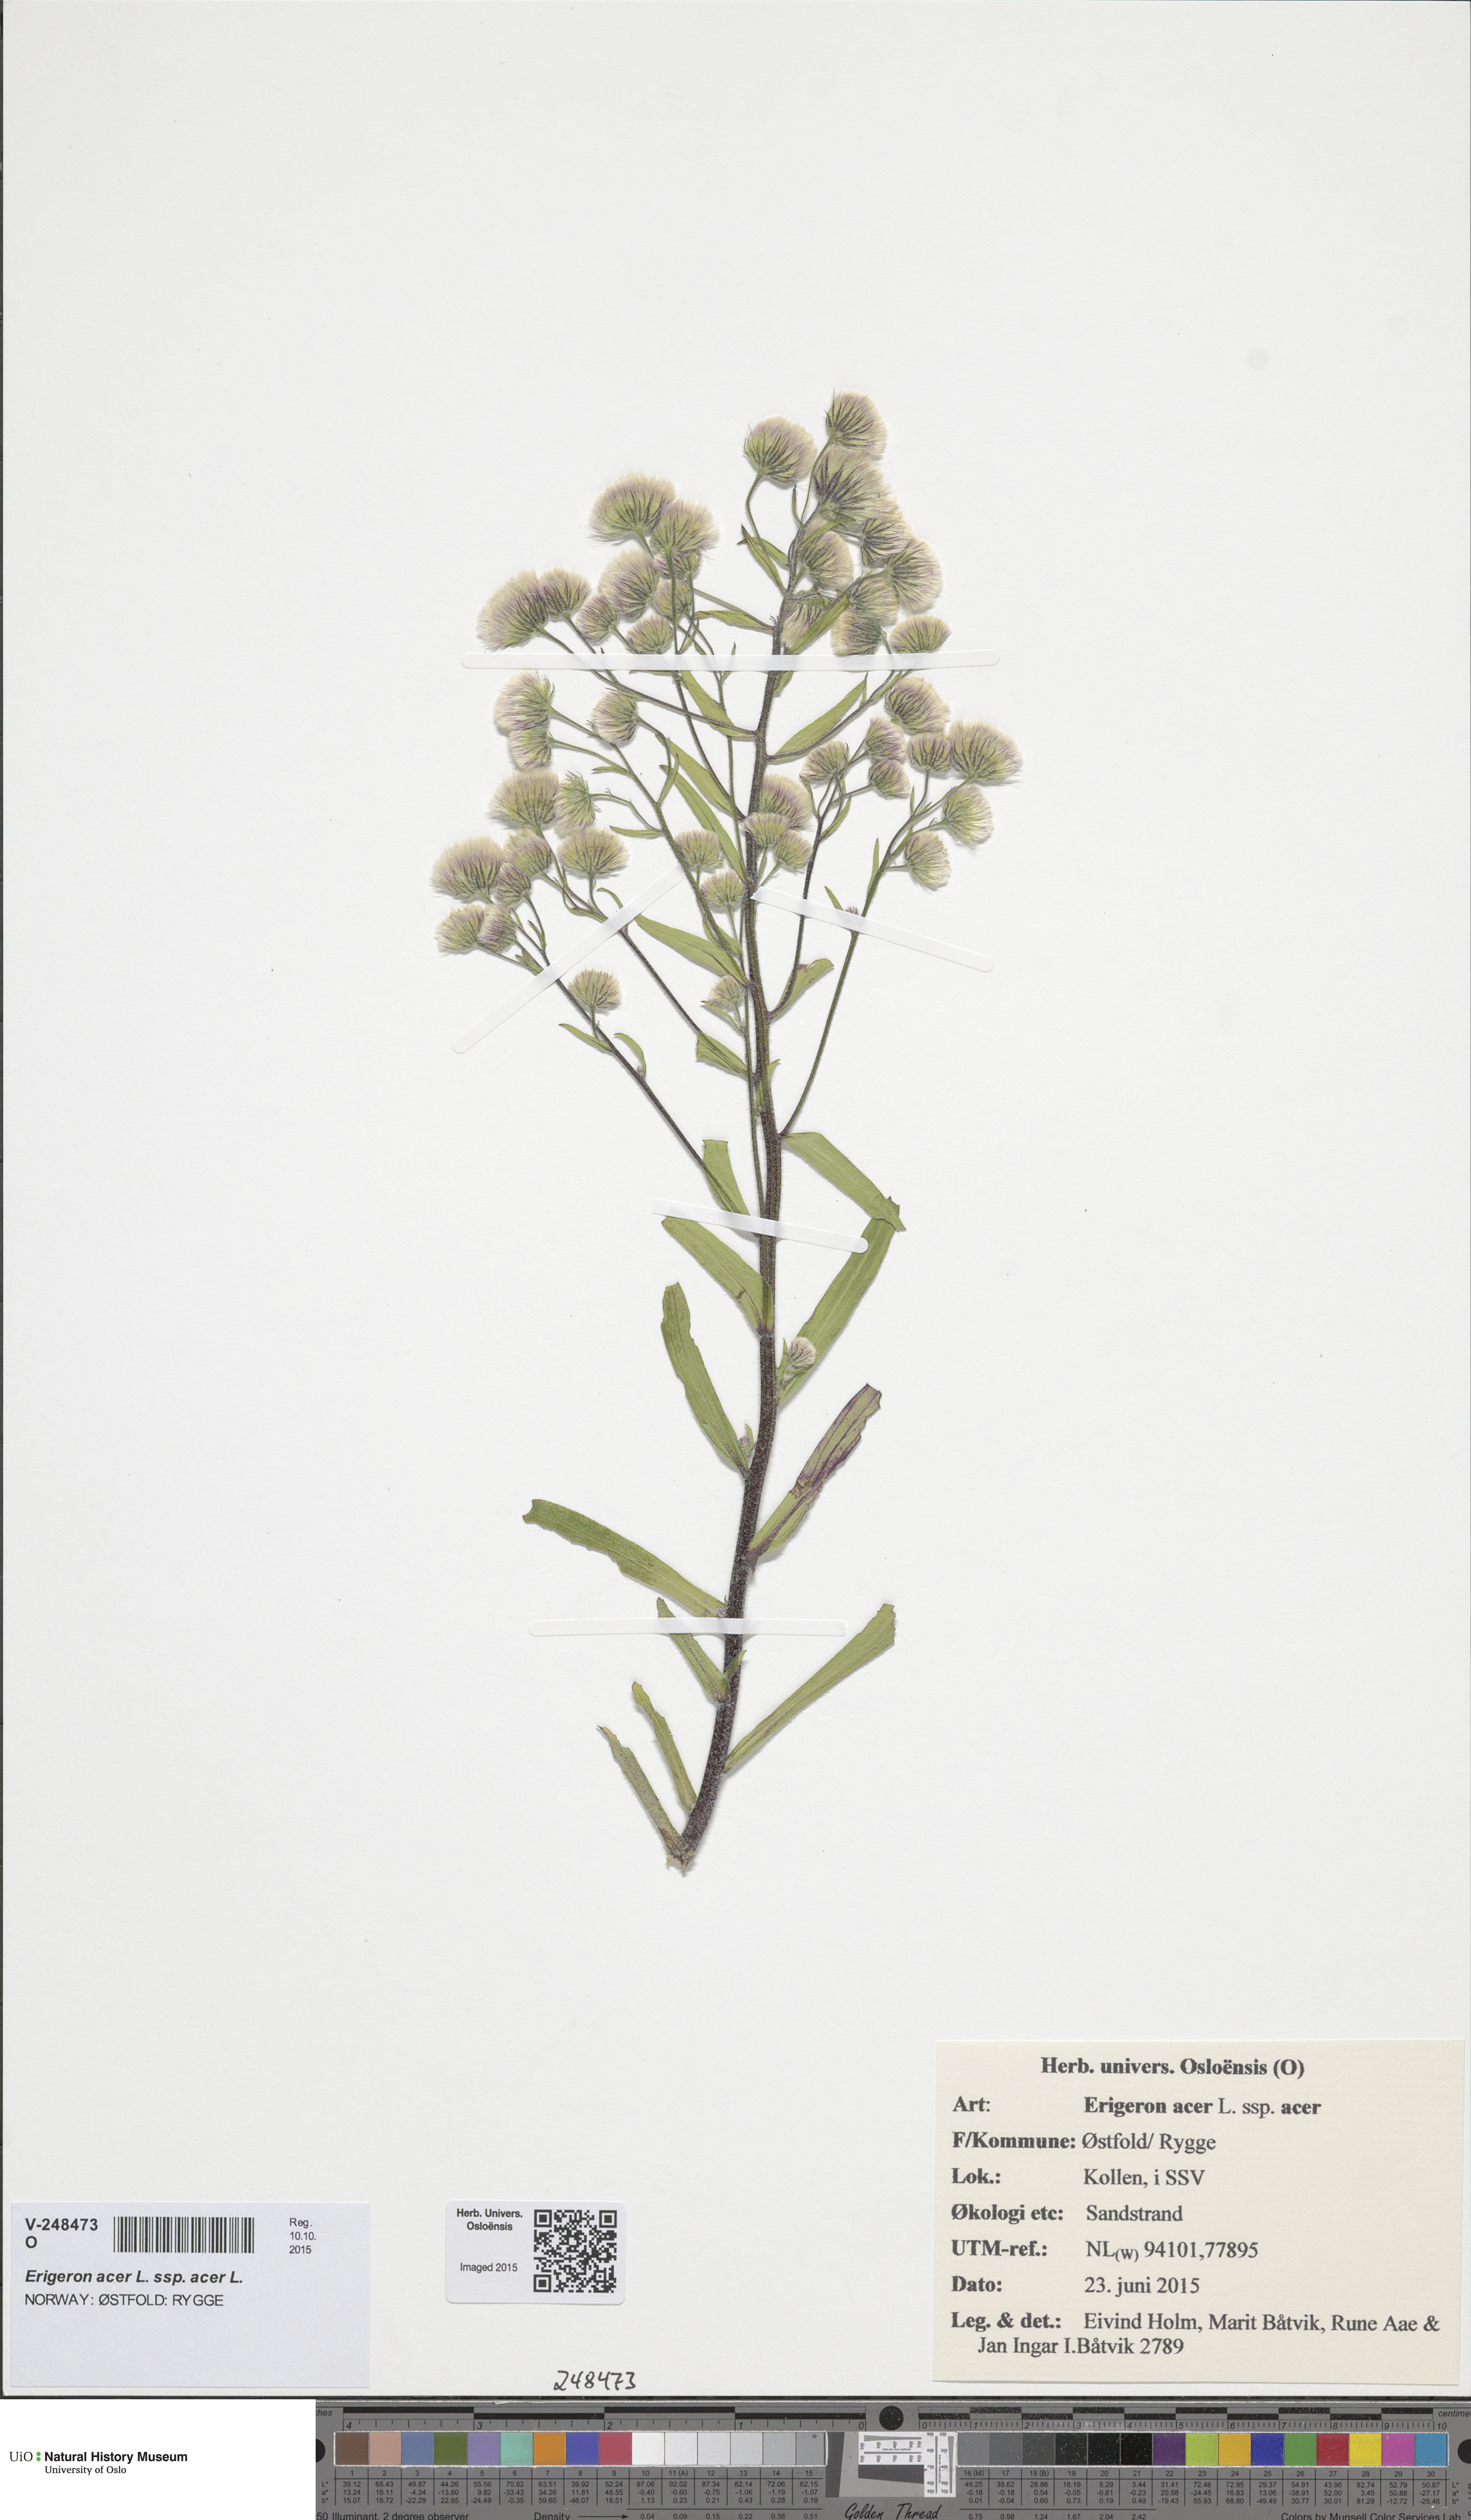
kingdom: Plantae
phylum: Tracheophyta
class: Magnoliopsida
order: Asterales
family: Asteraceae
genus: Erigeron
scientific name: Erigeron acris
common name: Blue fleabane
